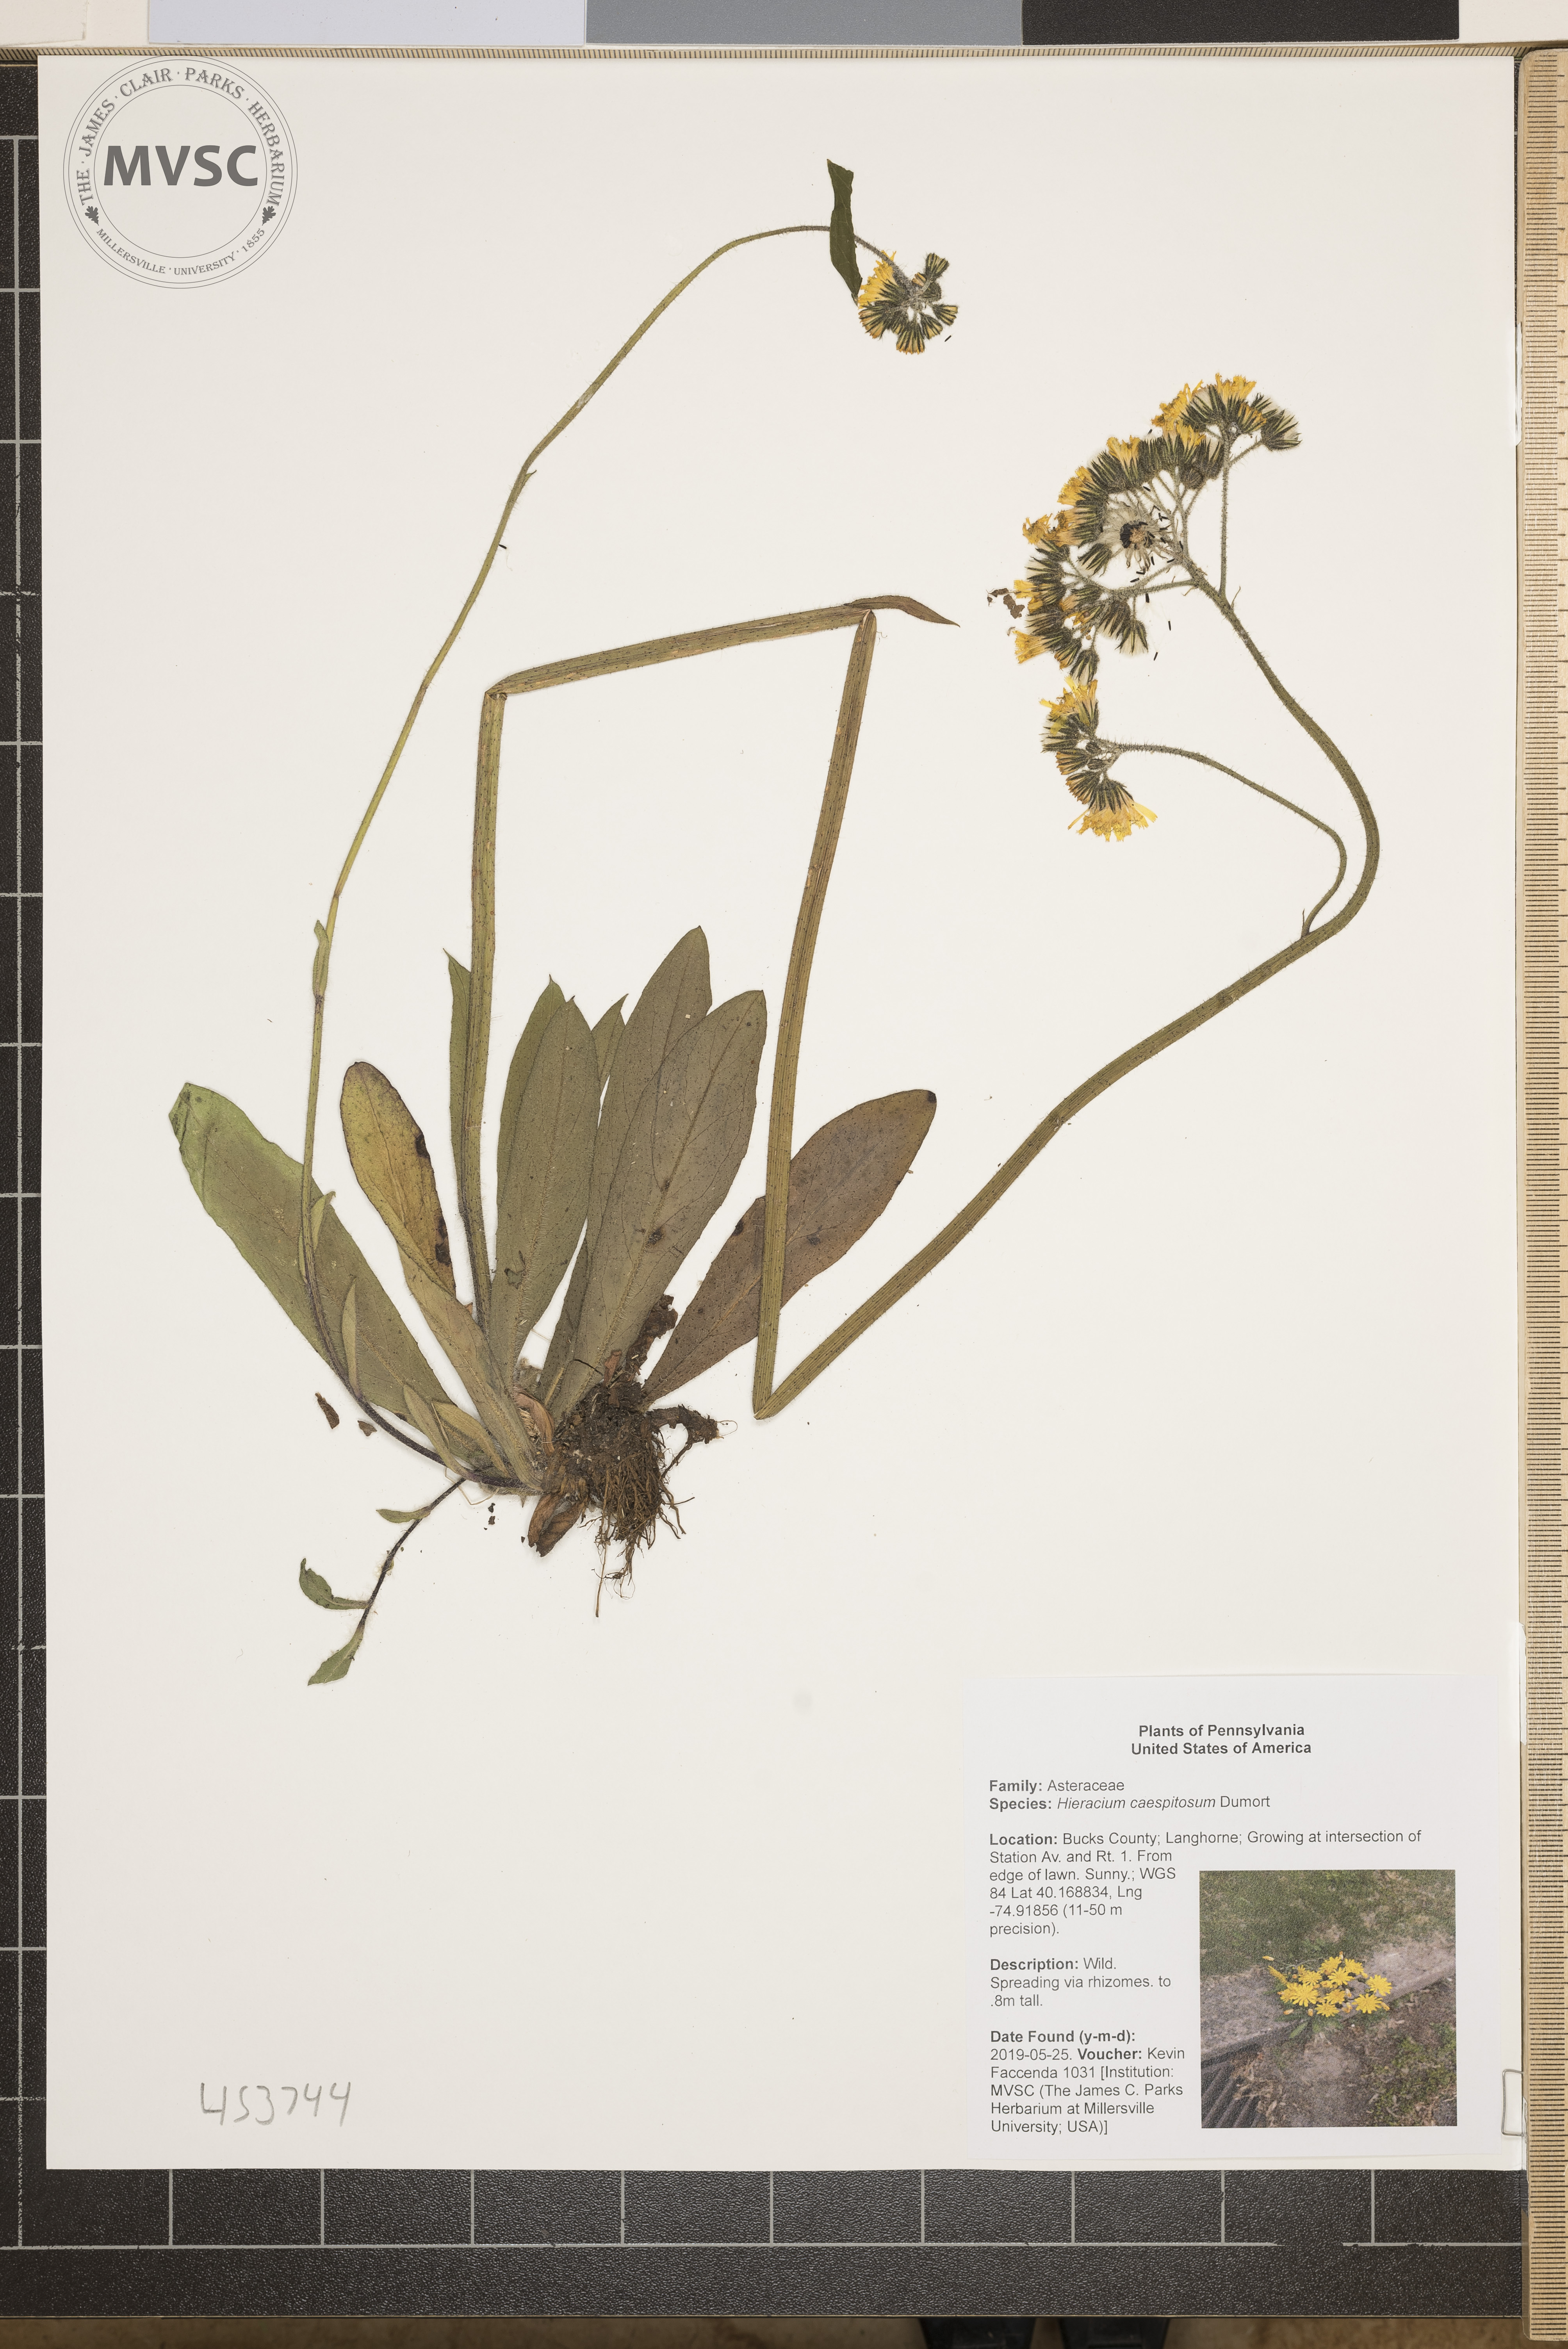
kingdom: Plantae
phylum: Tracheophyta
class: Magnoliopsida
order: Asterales
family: Asteraceae
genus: Pilosella
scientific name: Pilosella caespitosa
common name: Yellow fox-and-cubs
